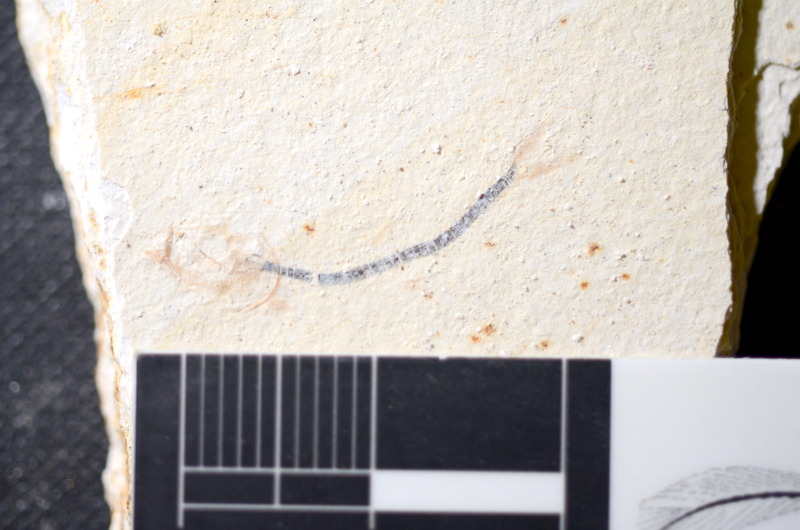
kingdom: Animalia
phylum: Chordata
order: Salmoniformes
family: Orthogonikleithridae
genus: Orthogonikleithrus
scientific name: Orthogonikleithrus hoelli
